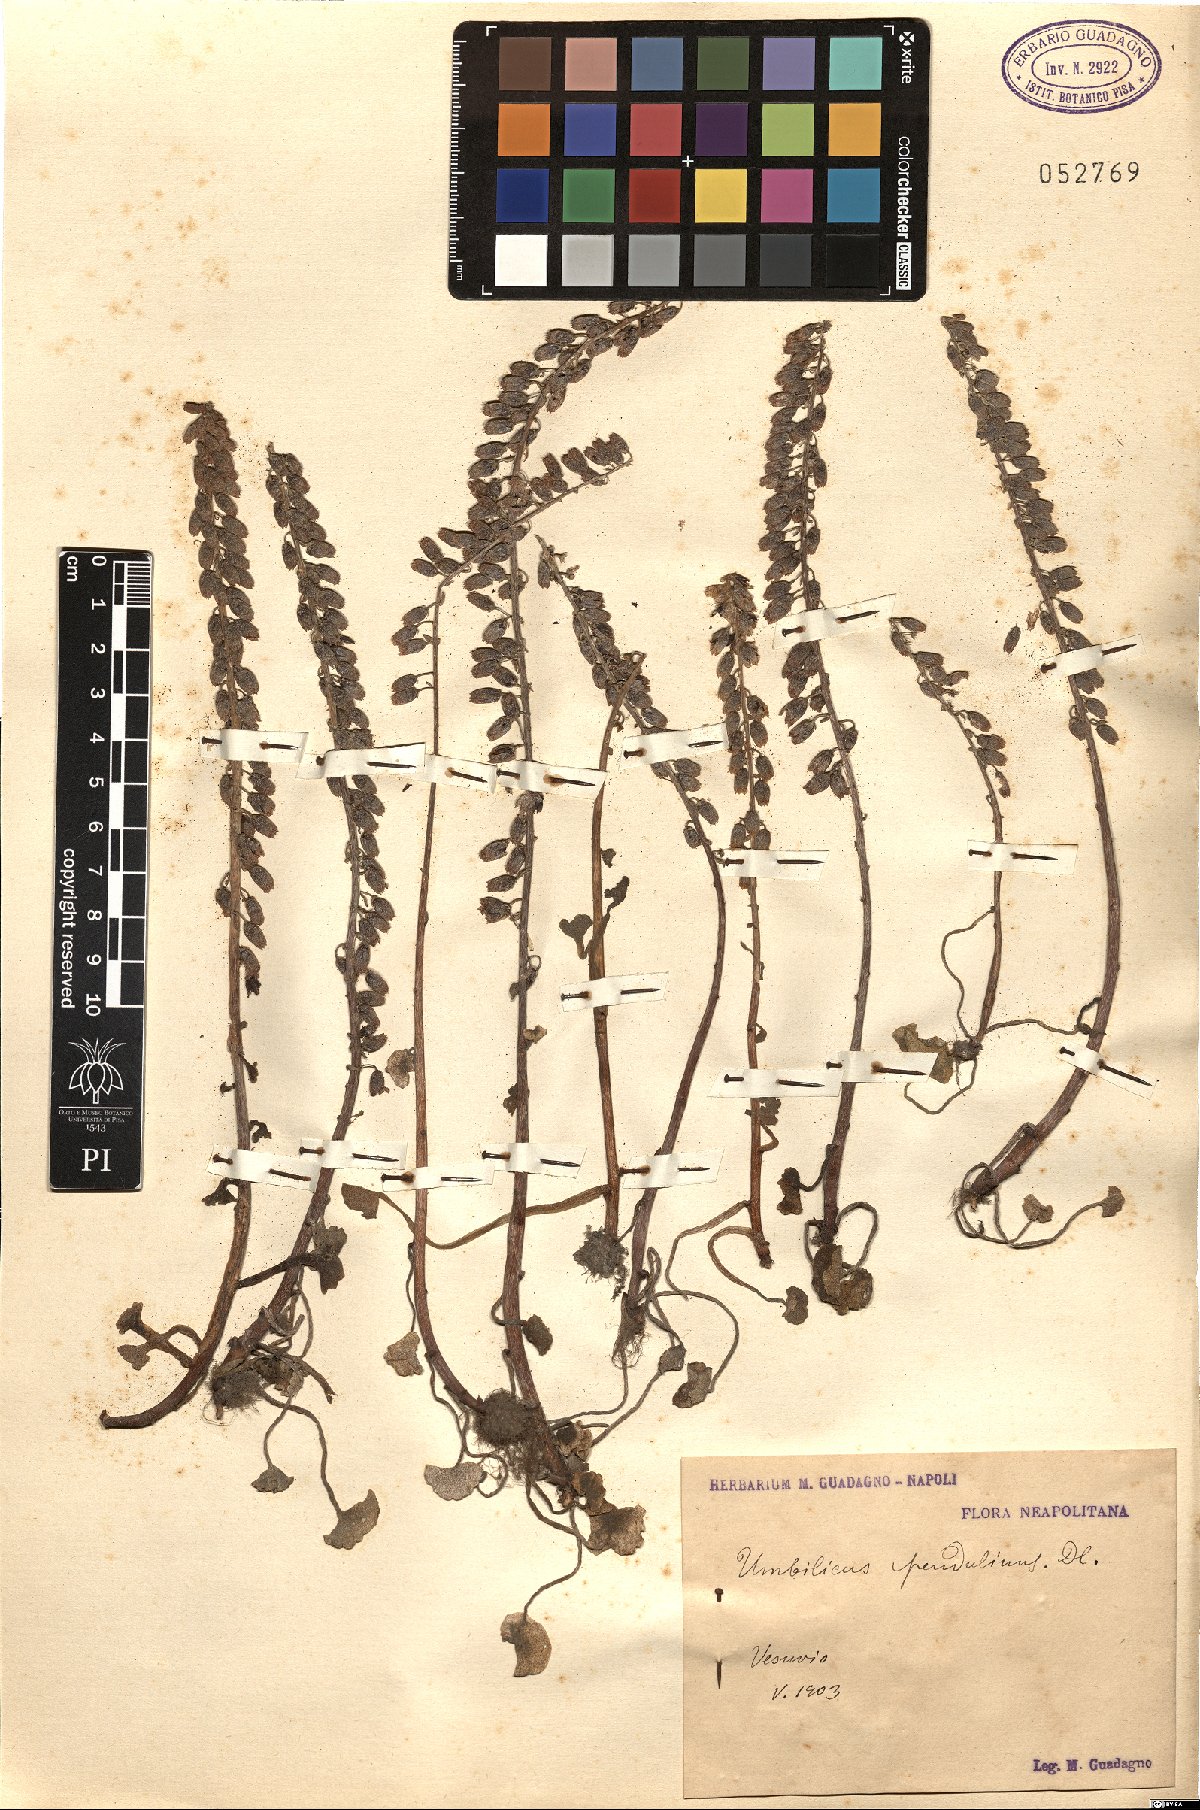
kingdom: Plantae
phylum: Tracheophyta
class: Magnoliopsida
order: Saxifragales
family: Crassulaceae
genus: Umbilicus
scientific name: Umbilicus rupestris
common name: Navelwort
